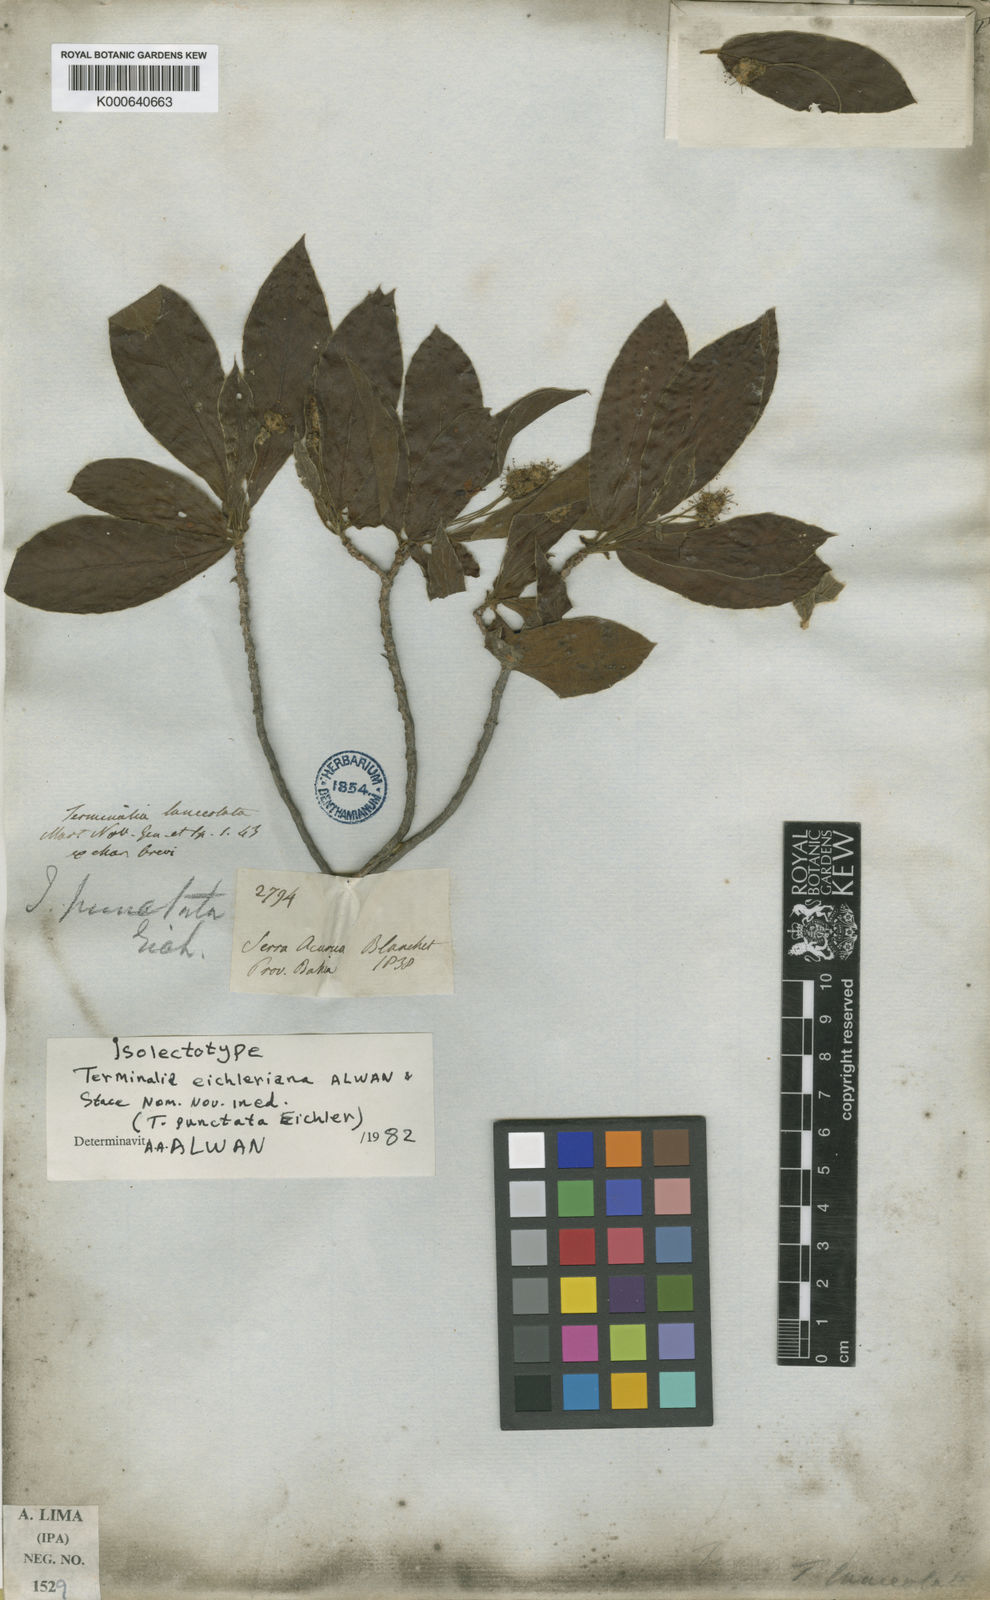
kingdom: Plantae
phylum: Tracheophyta
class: Magnoliopsida
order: Myrtales
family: Combretaceae
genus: Terminalia
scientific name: Terminalia eichleriana
